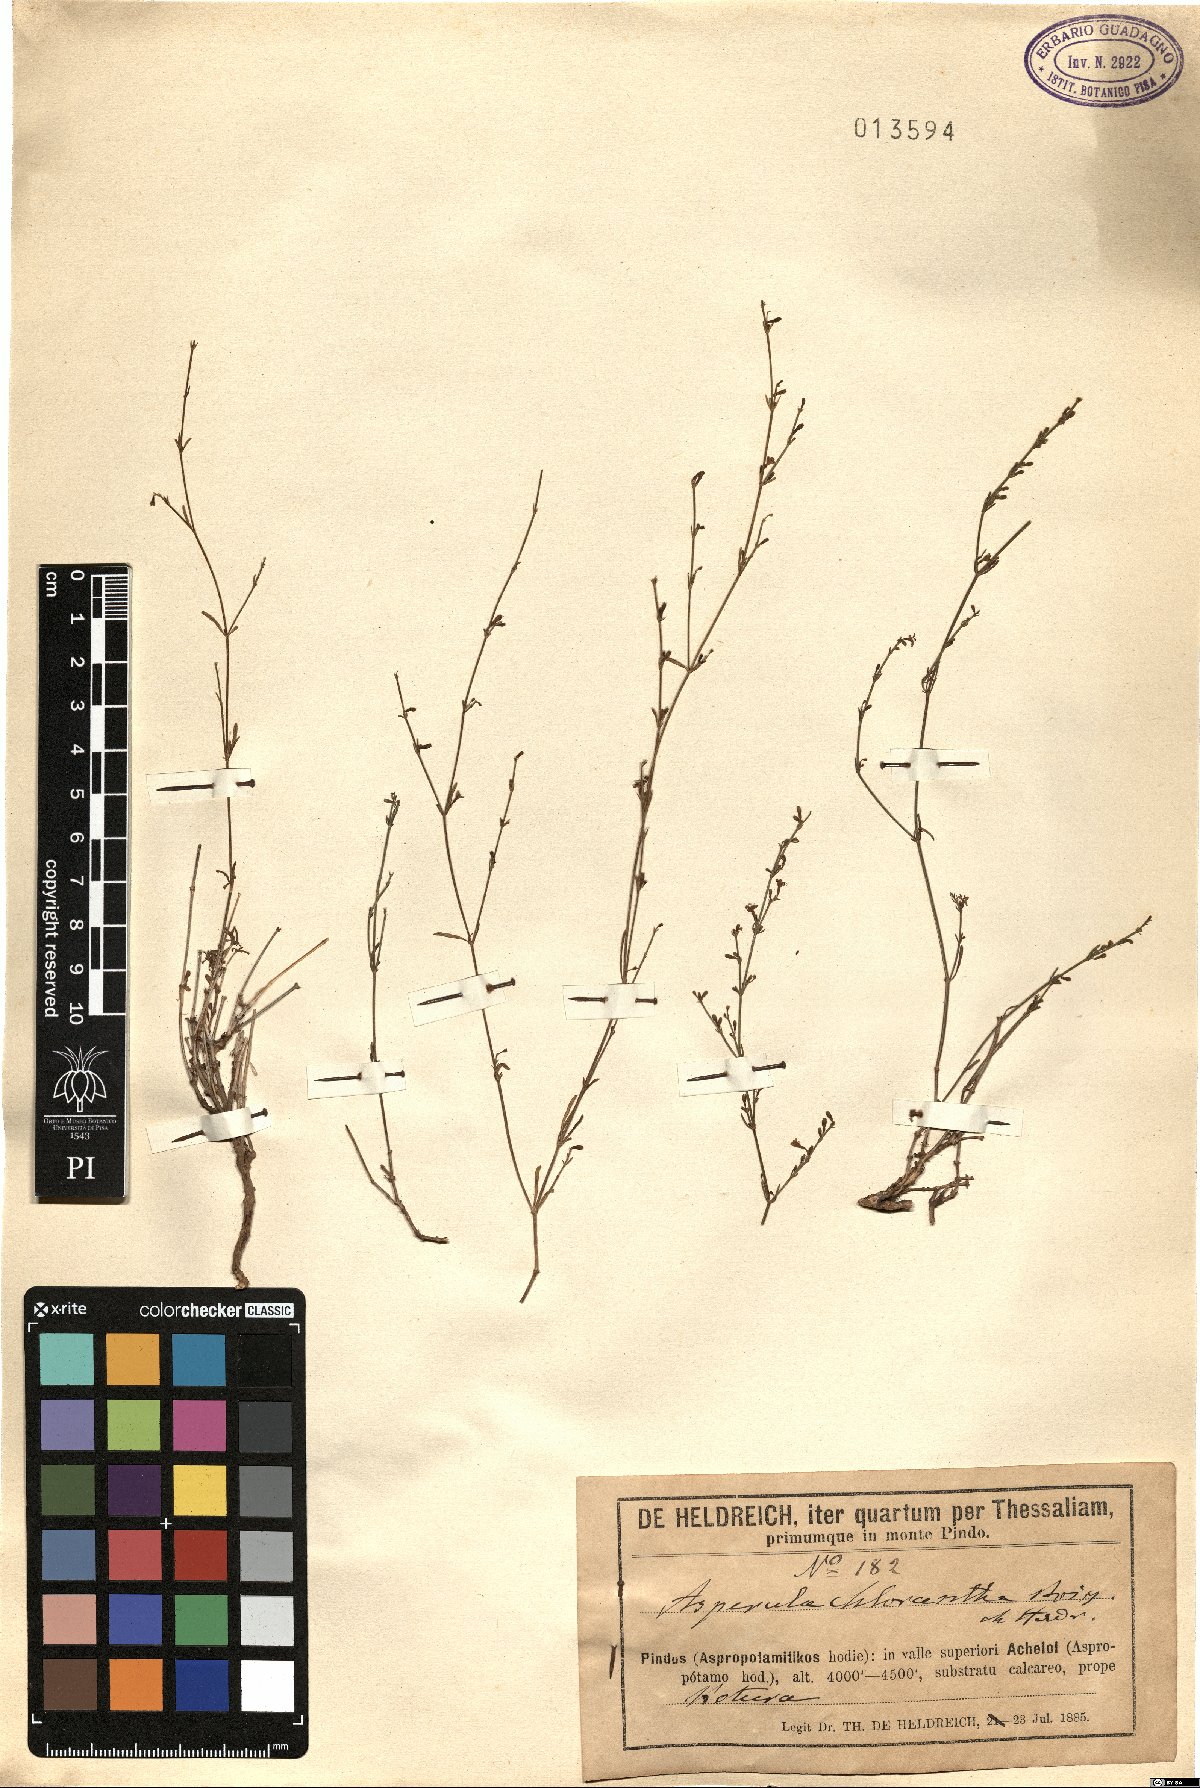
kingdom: Plantae
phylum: Tracheophyta
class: Magnoliopsida
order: Gentianales
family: Rubiaceae
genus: Thliphthisa
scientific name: Thliphthisa chlorantha
